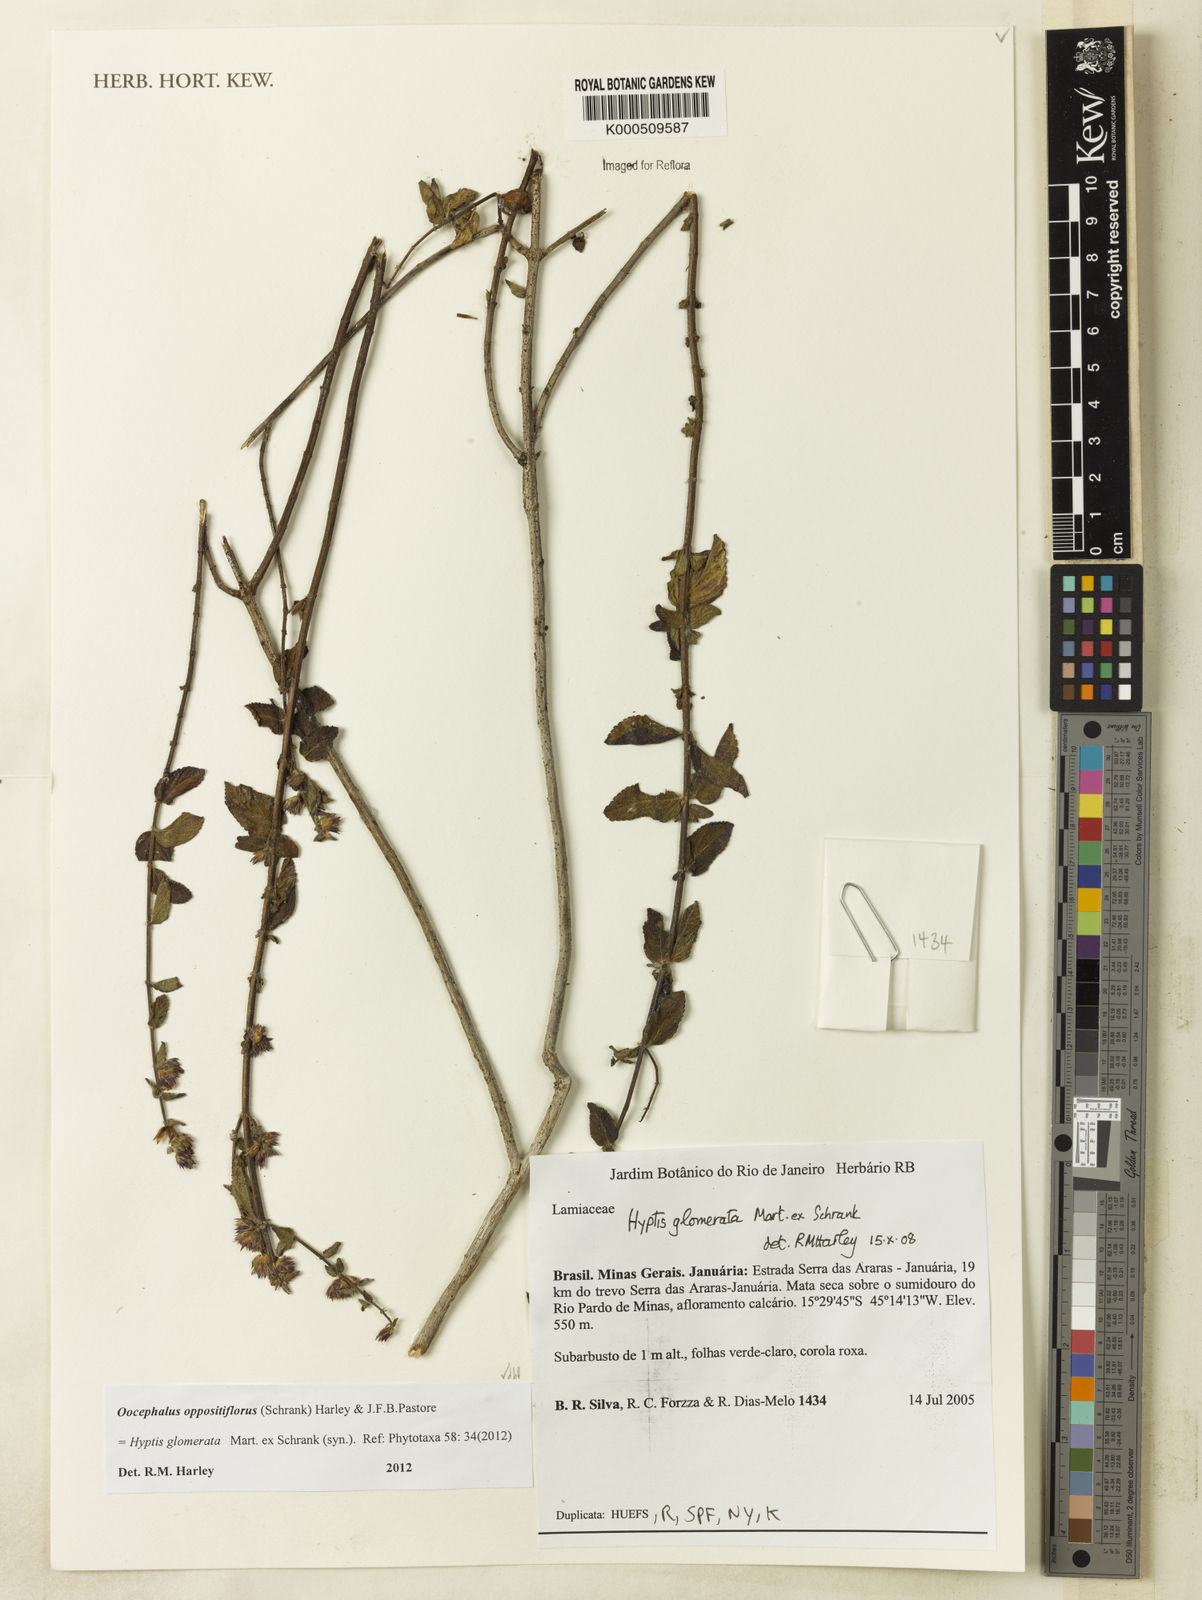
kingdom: Plantae
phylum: Tracheophyta
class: Magnoliopsida
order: Lamiales
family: Lamiaceae
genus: Salvia
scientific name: Salvia rypara
